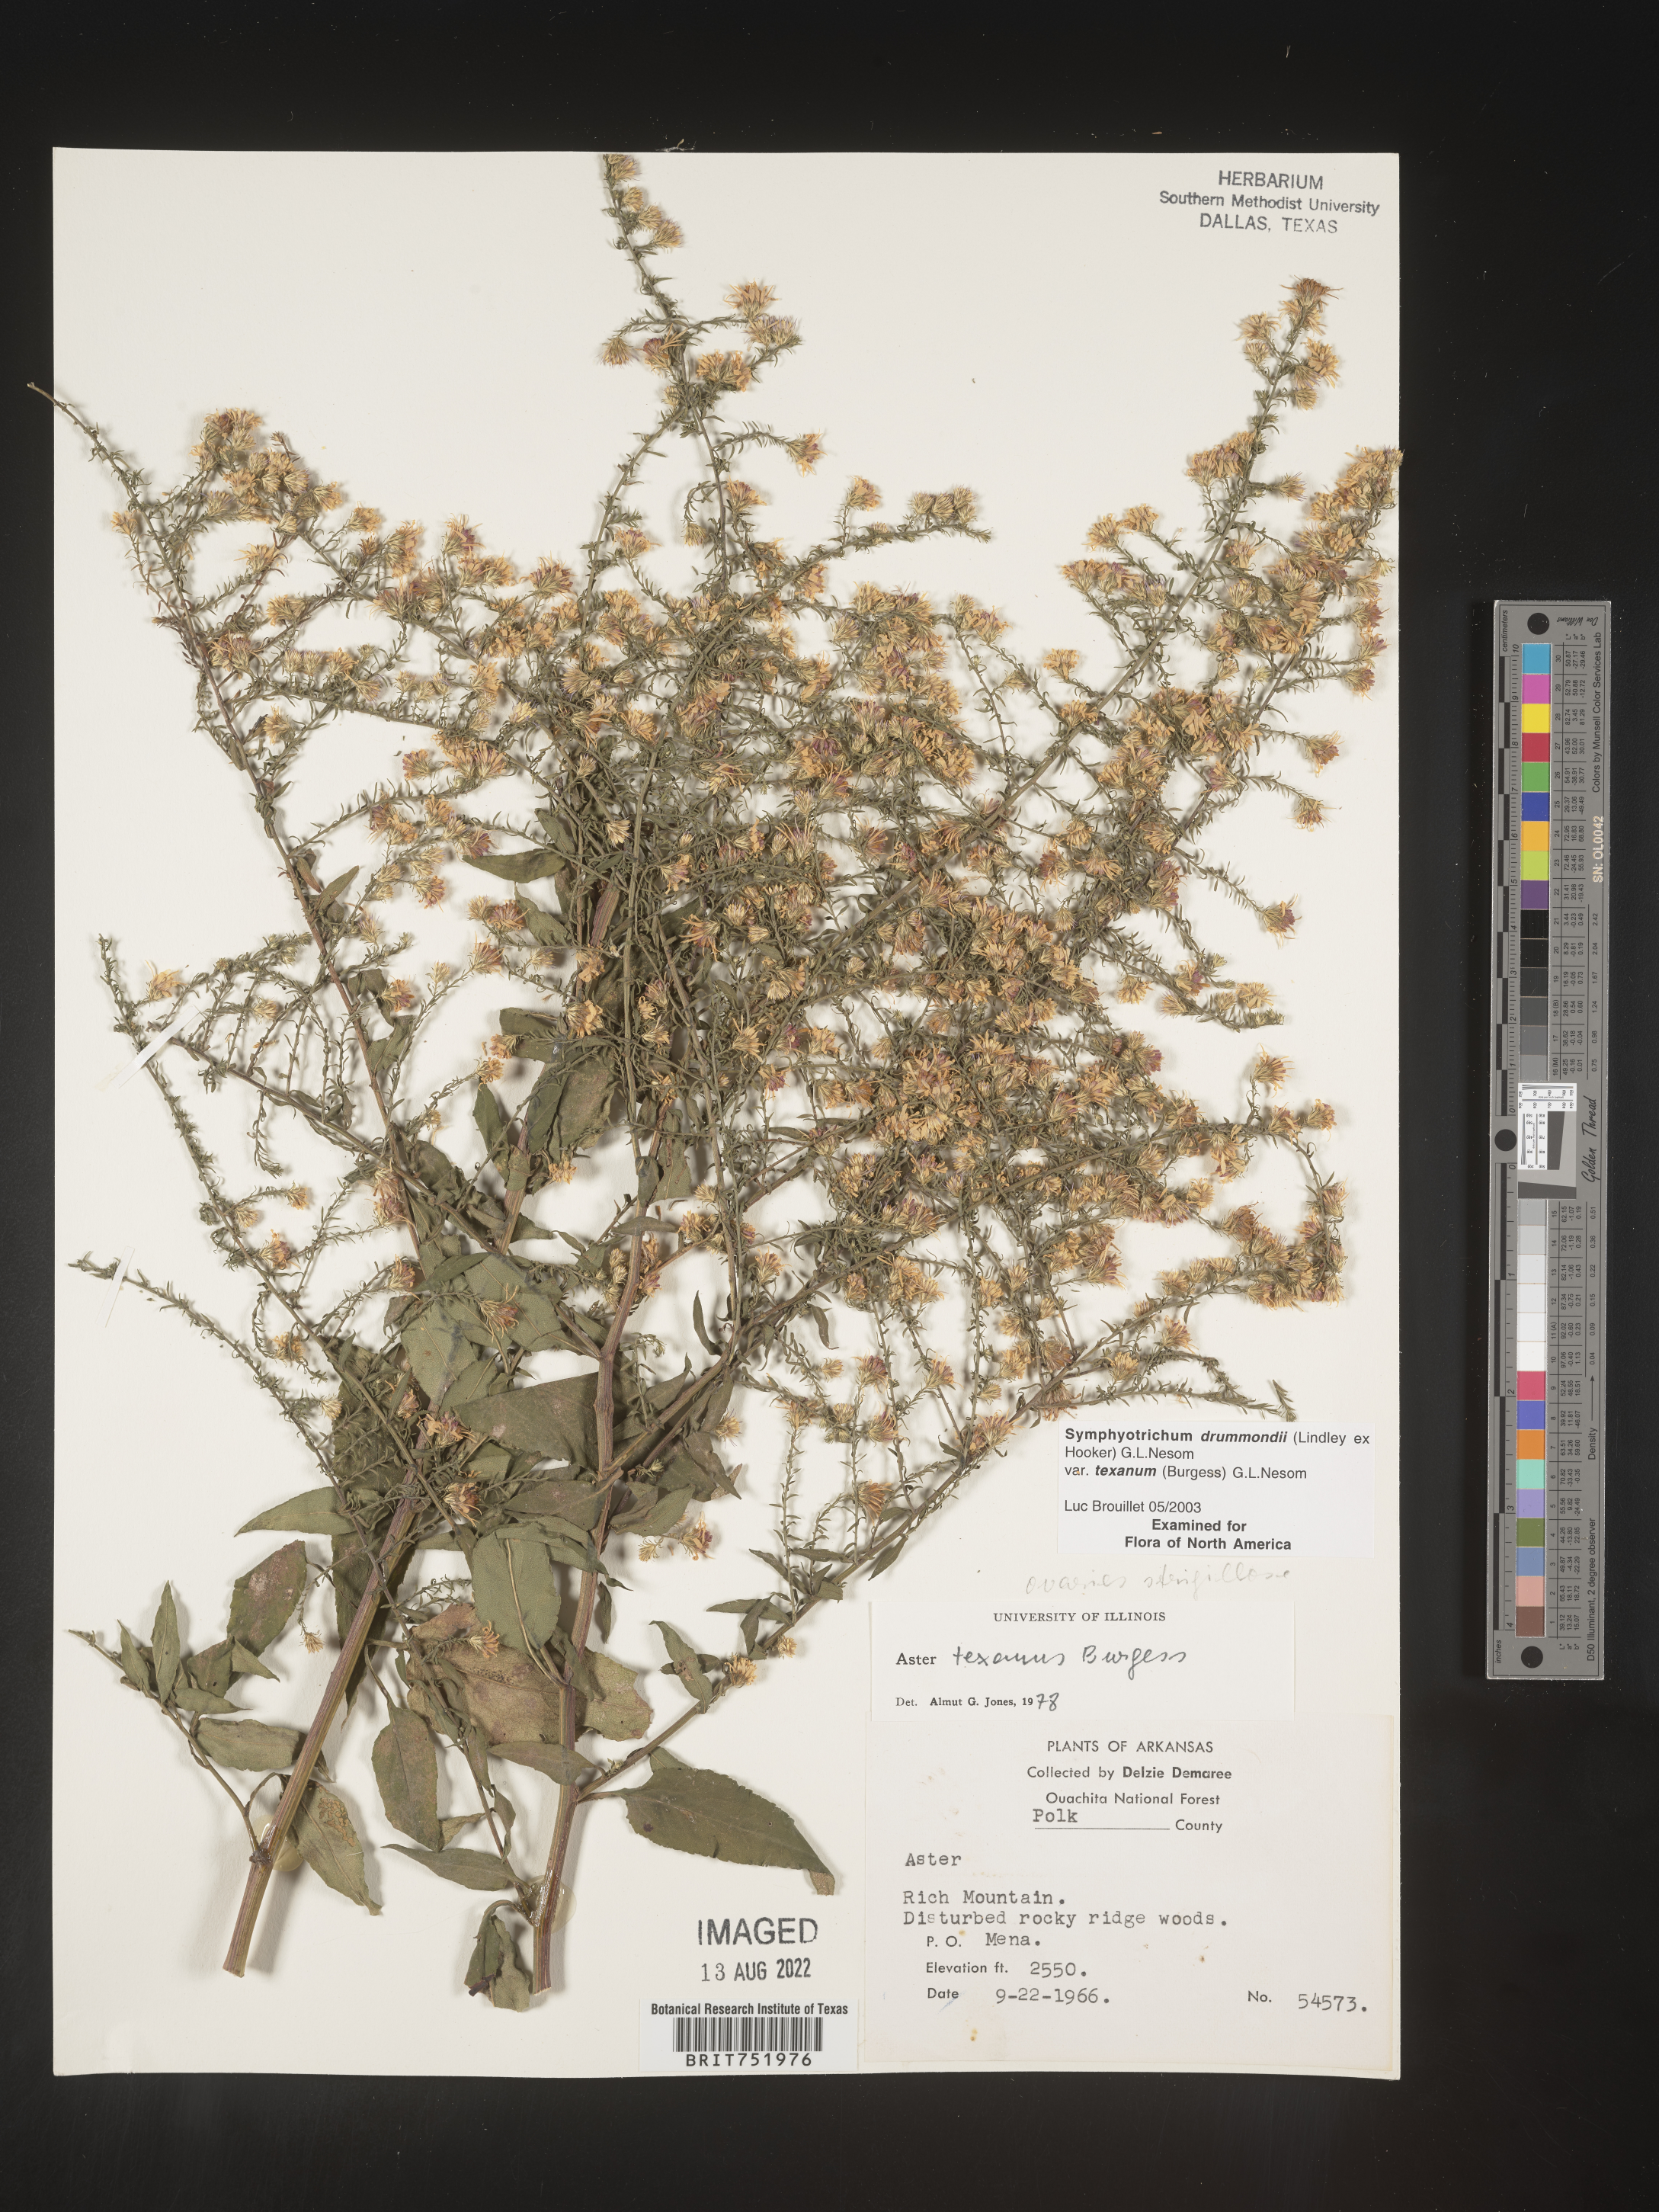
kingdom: Plantae
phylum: Tracheophyta
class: Magnoliopsida
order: Asterales
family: Asteraceae
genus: Symphyotrichum
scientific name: Symphyotrichum drummondii
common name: Drummond's aster
